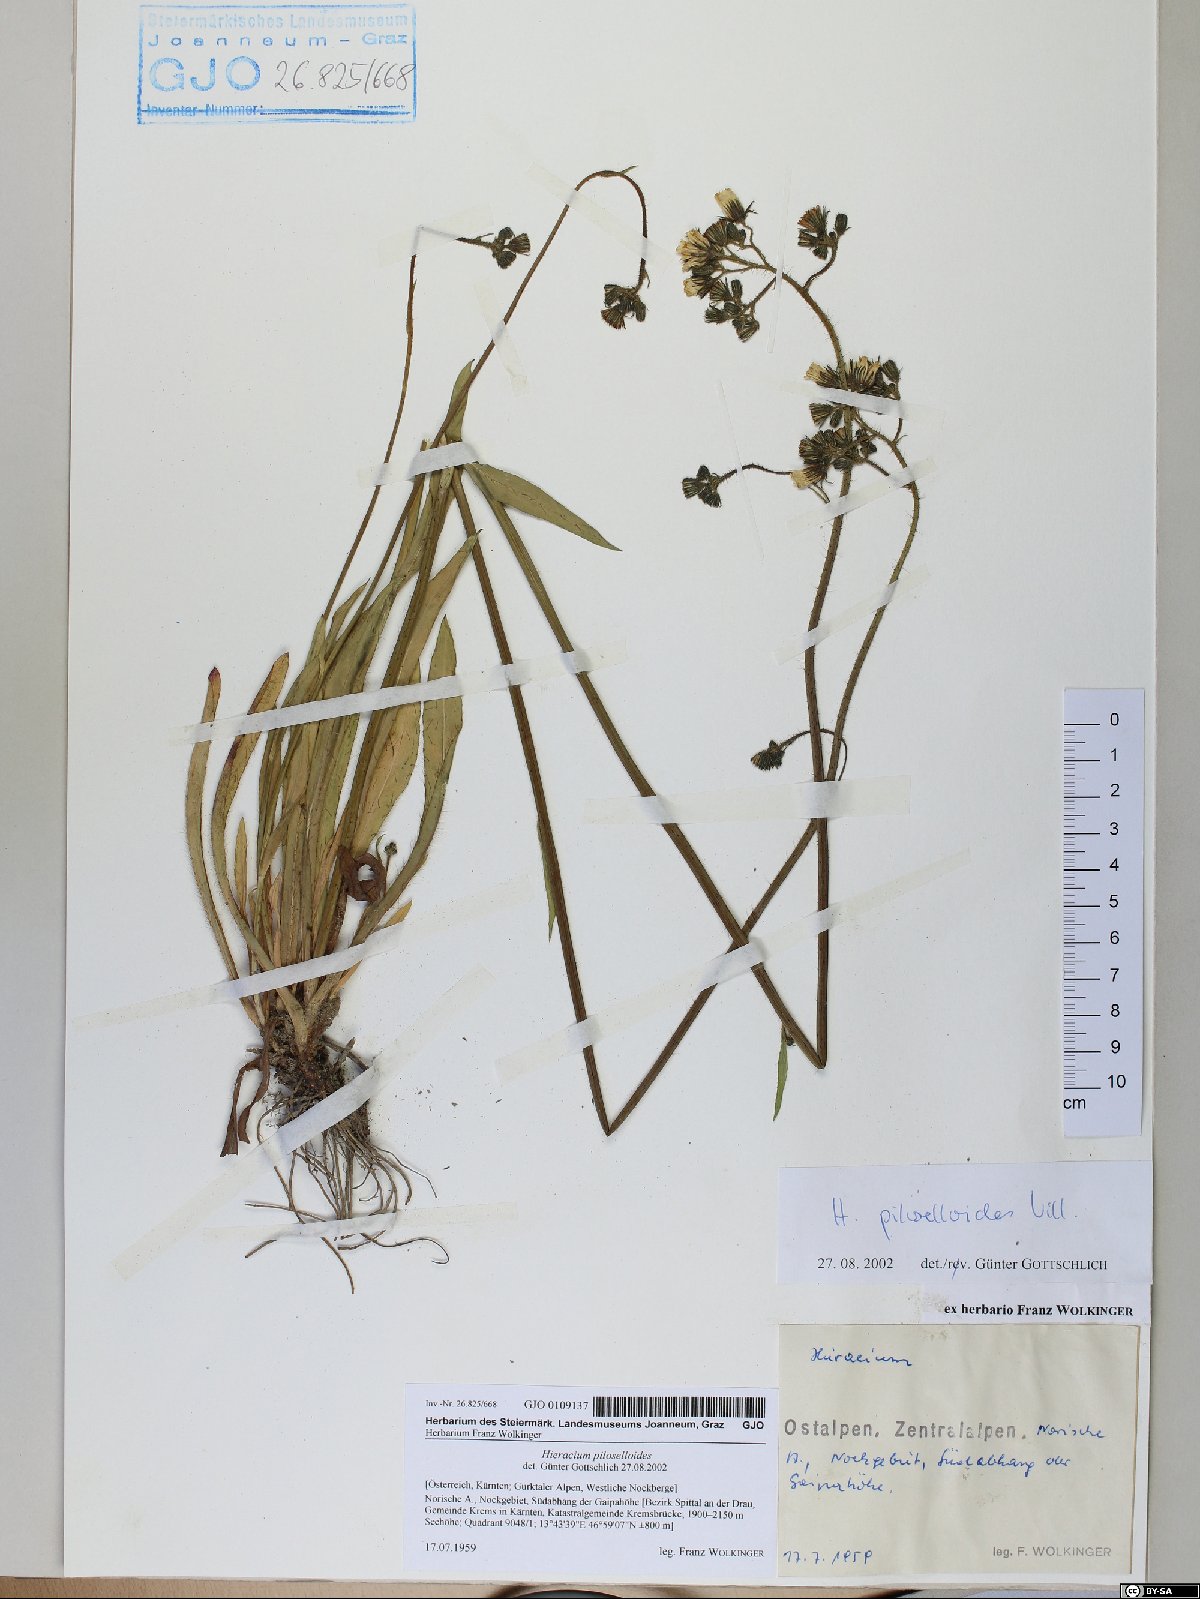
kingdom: Plantae
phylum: Tracheophyta
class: Magnoliopsida
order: Asterales
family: Asteraceae
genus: Pilosella
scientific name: Pilosella piloselloides
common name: Glaucous king-devil
